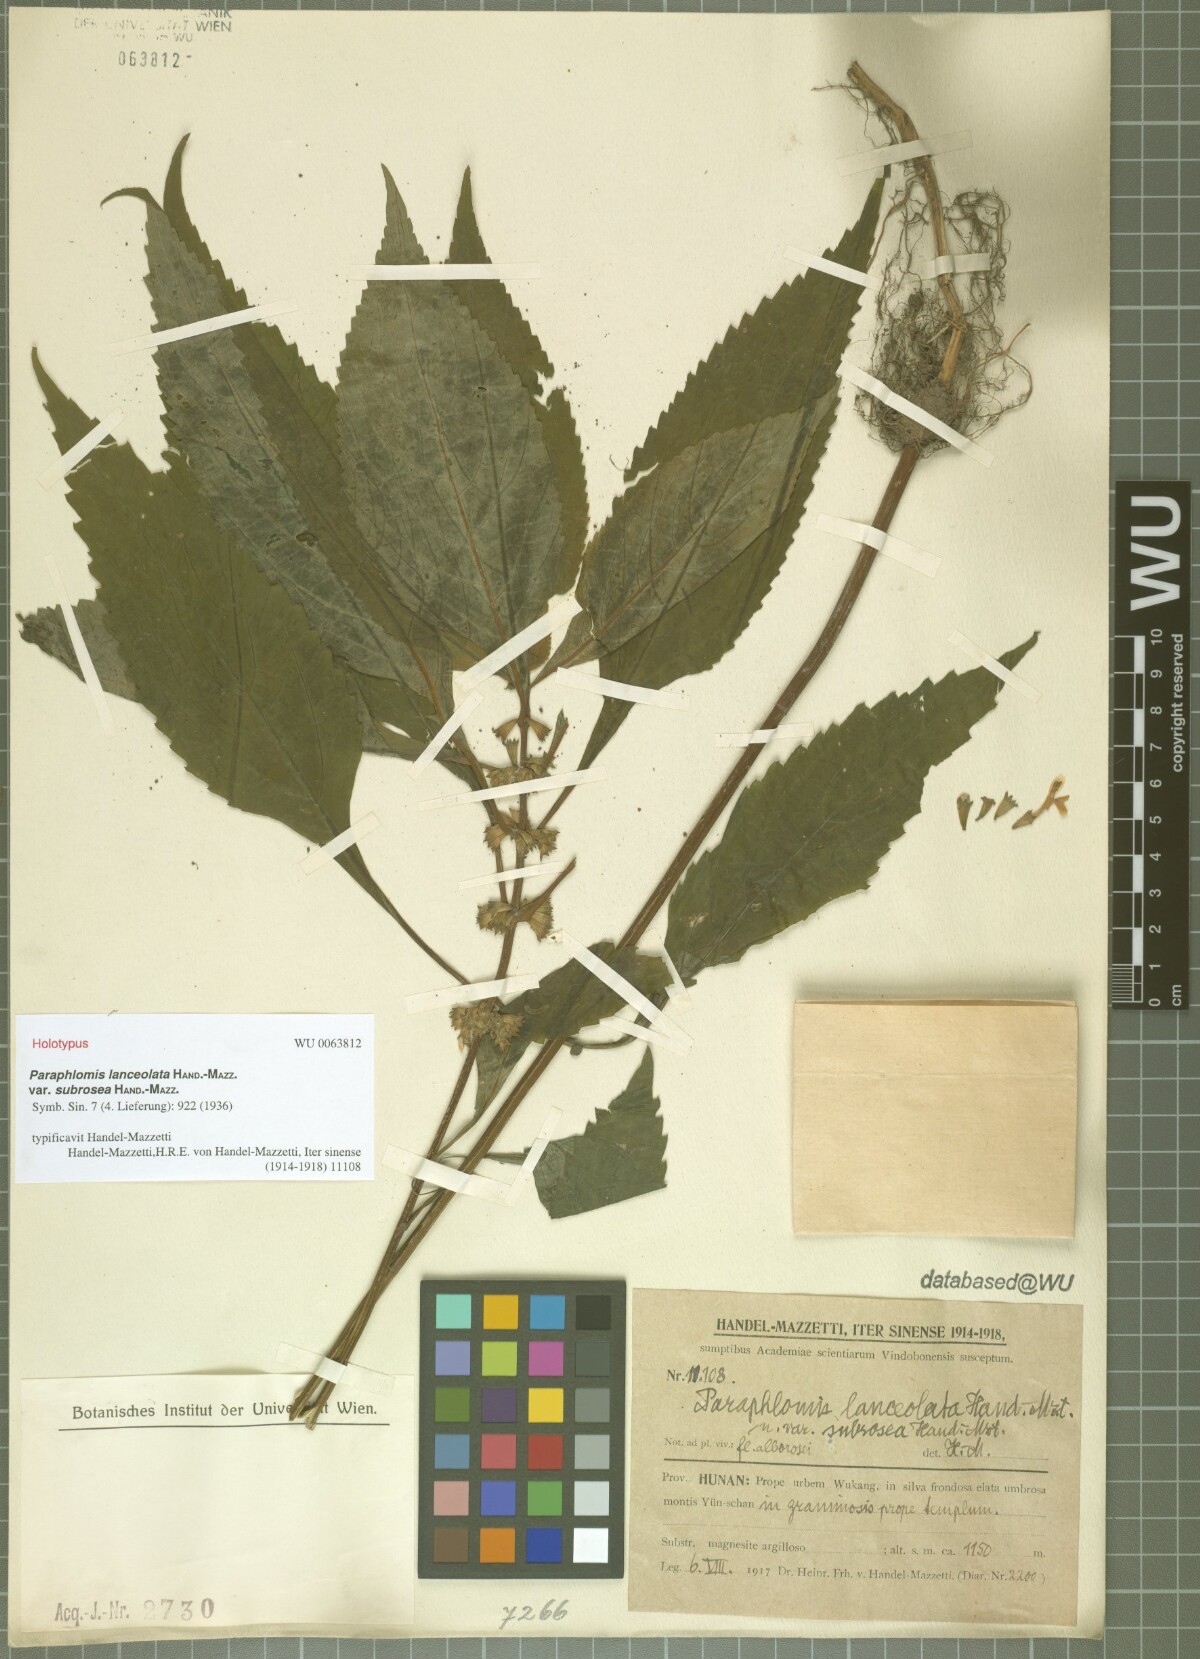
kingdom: Plantae
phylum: Tracheophyta
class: Magnoliopsida
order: Lamiales
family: Lamiaceae
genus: Paraphlomis
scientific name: Paraphlomis lanceolata
